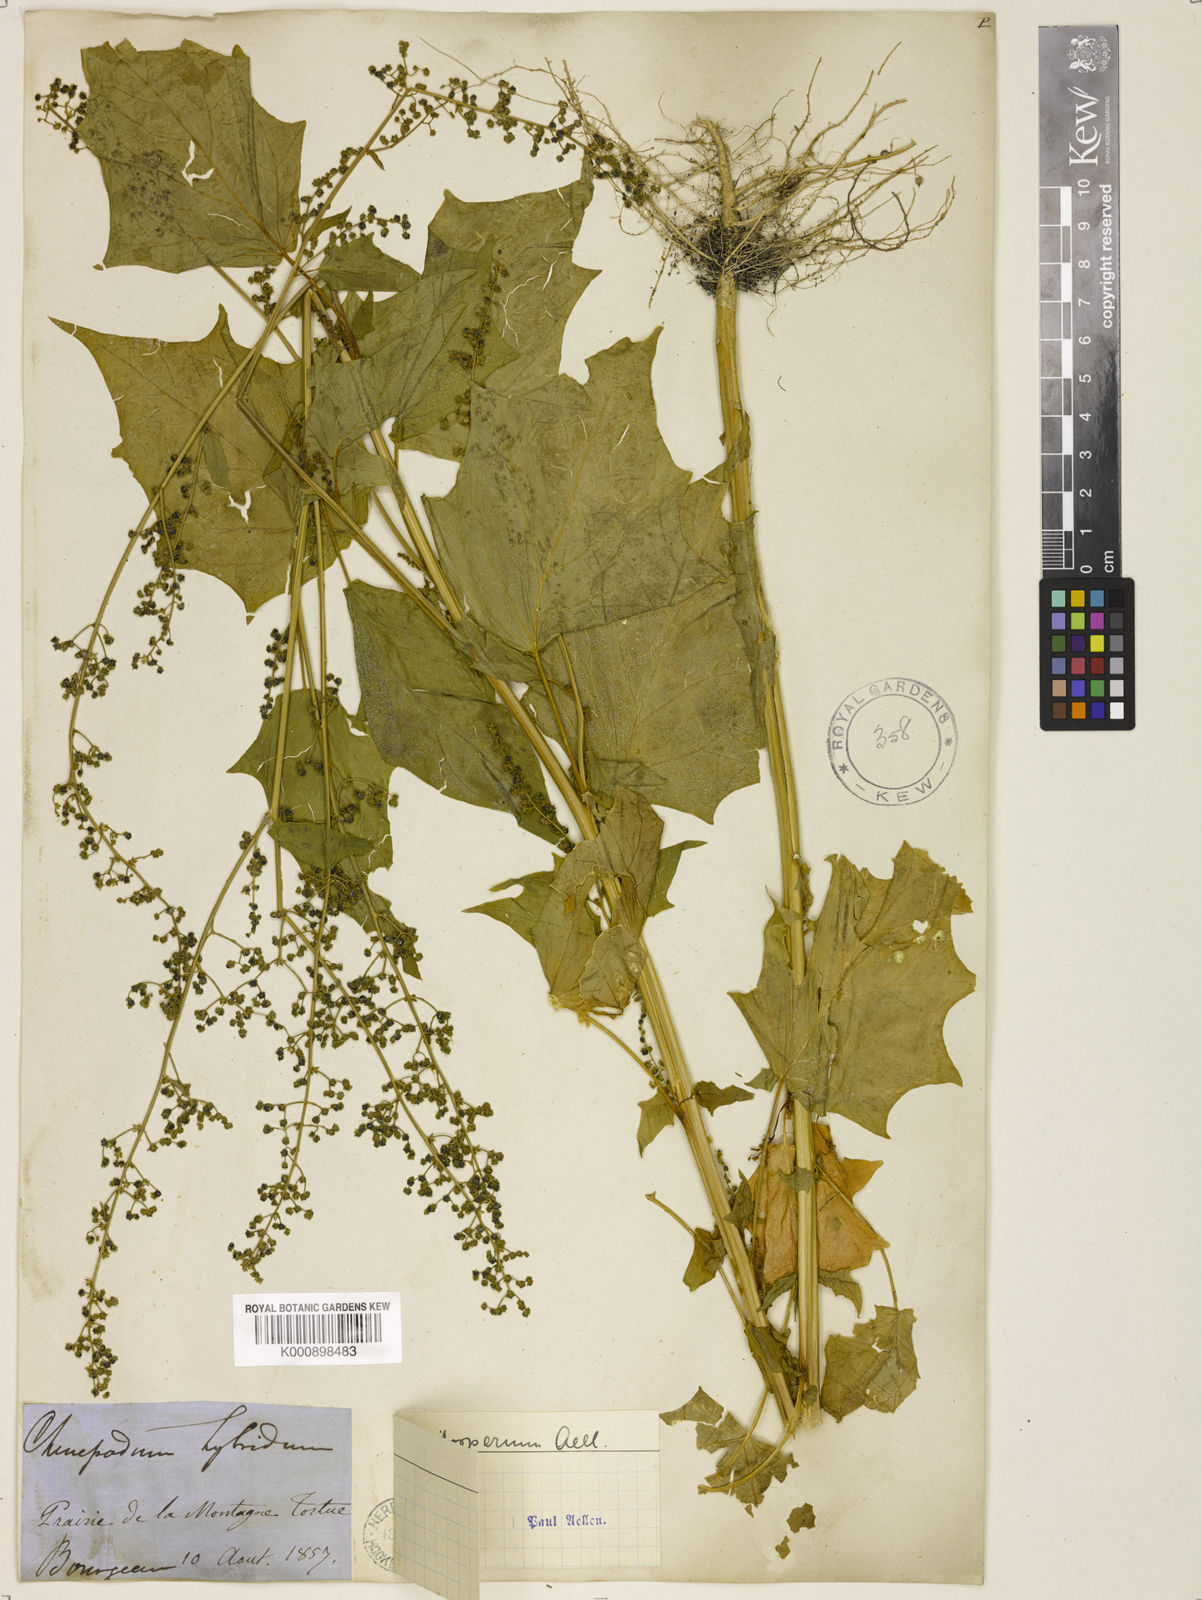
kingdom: Plantae
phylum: Tracheophyta
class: Magnoliopsida
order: Caryophyllales
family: Amaranthaceae
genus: Chenopodiastrum
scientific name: Chenopodiastrum simplex
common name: Large-seed goosefoot
